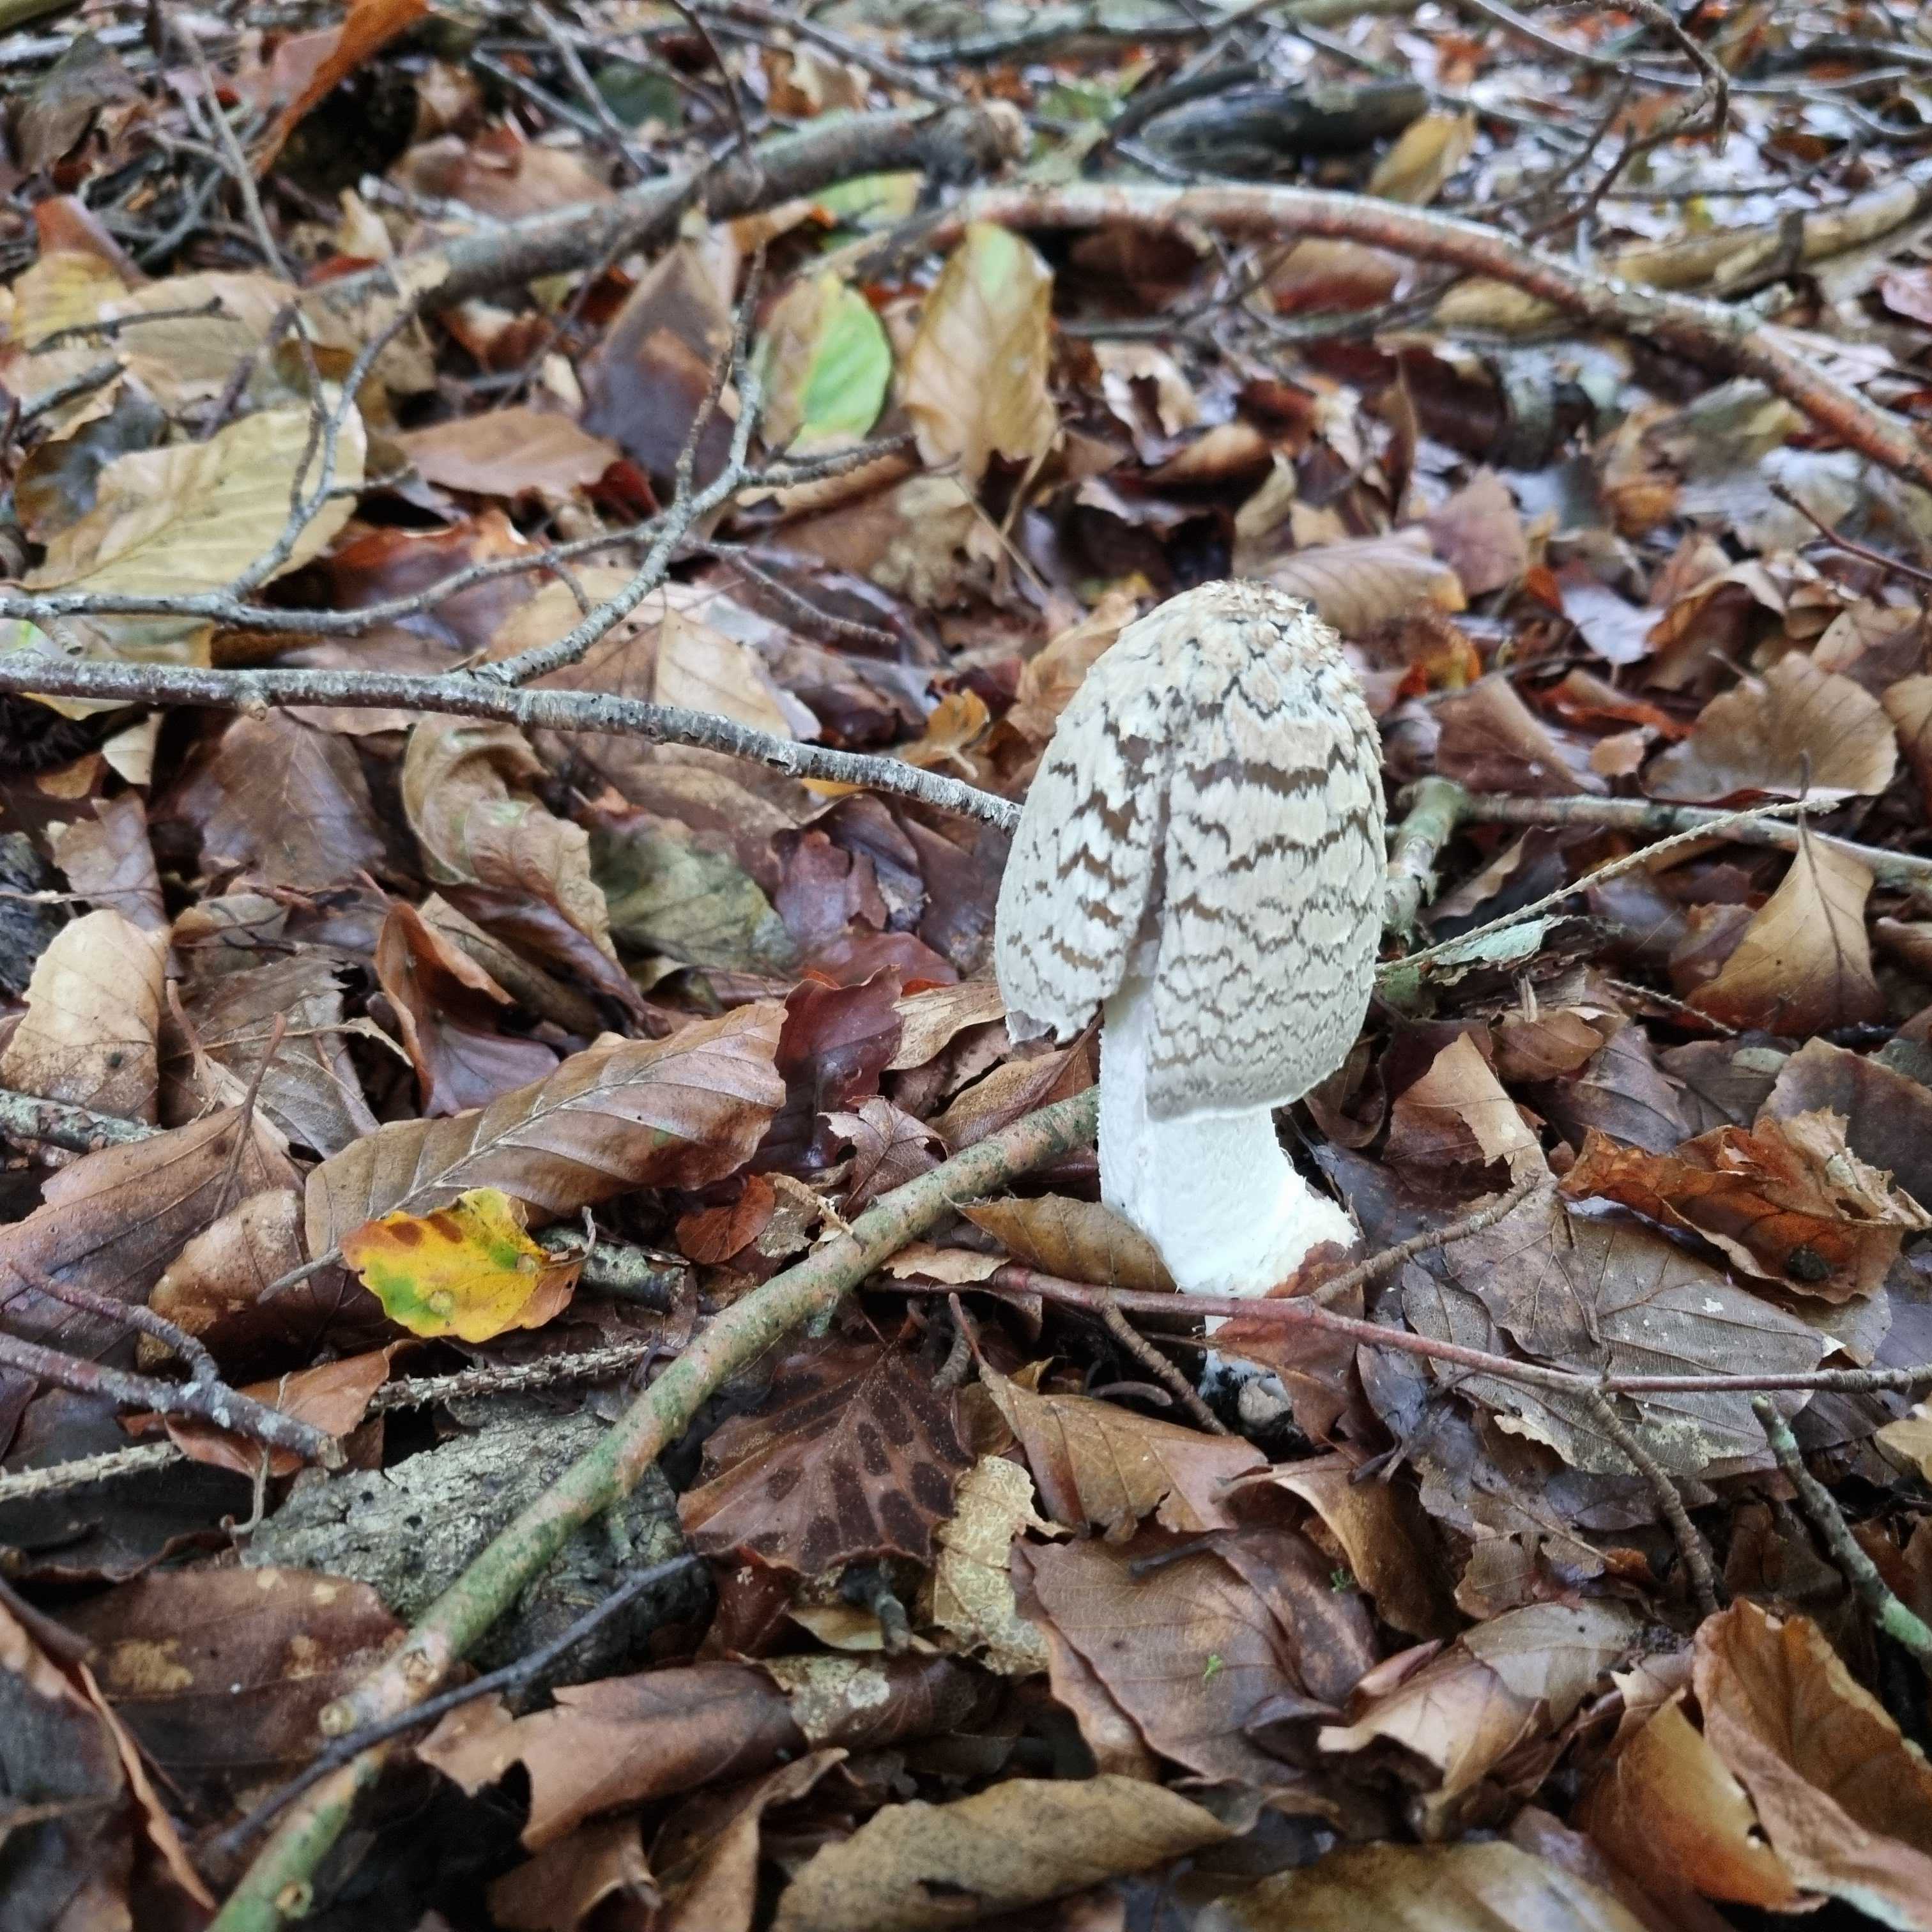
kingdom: Fungi
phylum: Basidiomycota
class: Agaricomycetes
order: Agaricales
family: Psathyrellaceae
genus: Coprinopsis
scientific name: Coprinopsis picacea
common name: skade-blækhat
